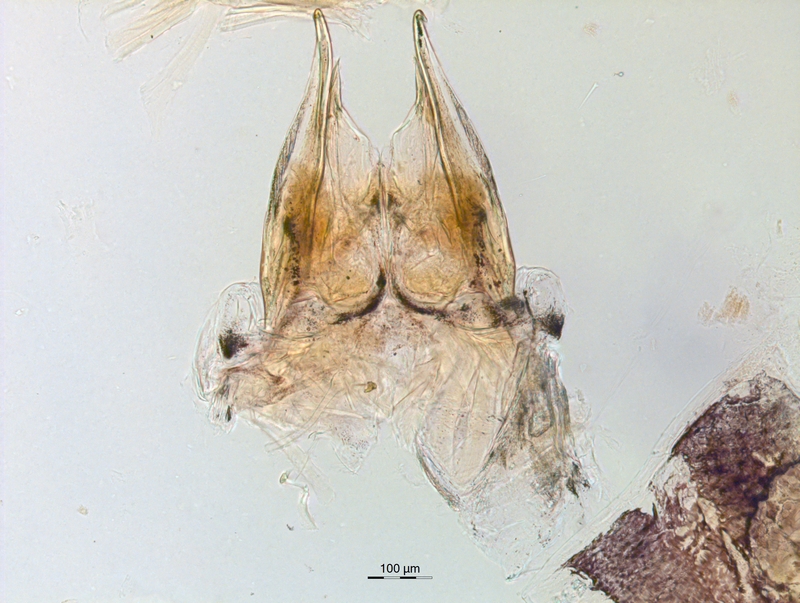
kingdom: Animalia
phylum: Arthropoda
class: Diplopoda
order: Chordeumatida
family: Anthroleucosomatidae
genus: Anamastigona
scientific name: Anamastigona hispidula
